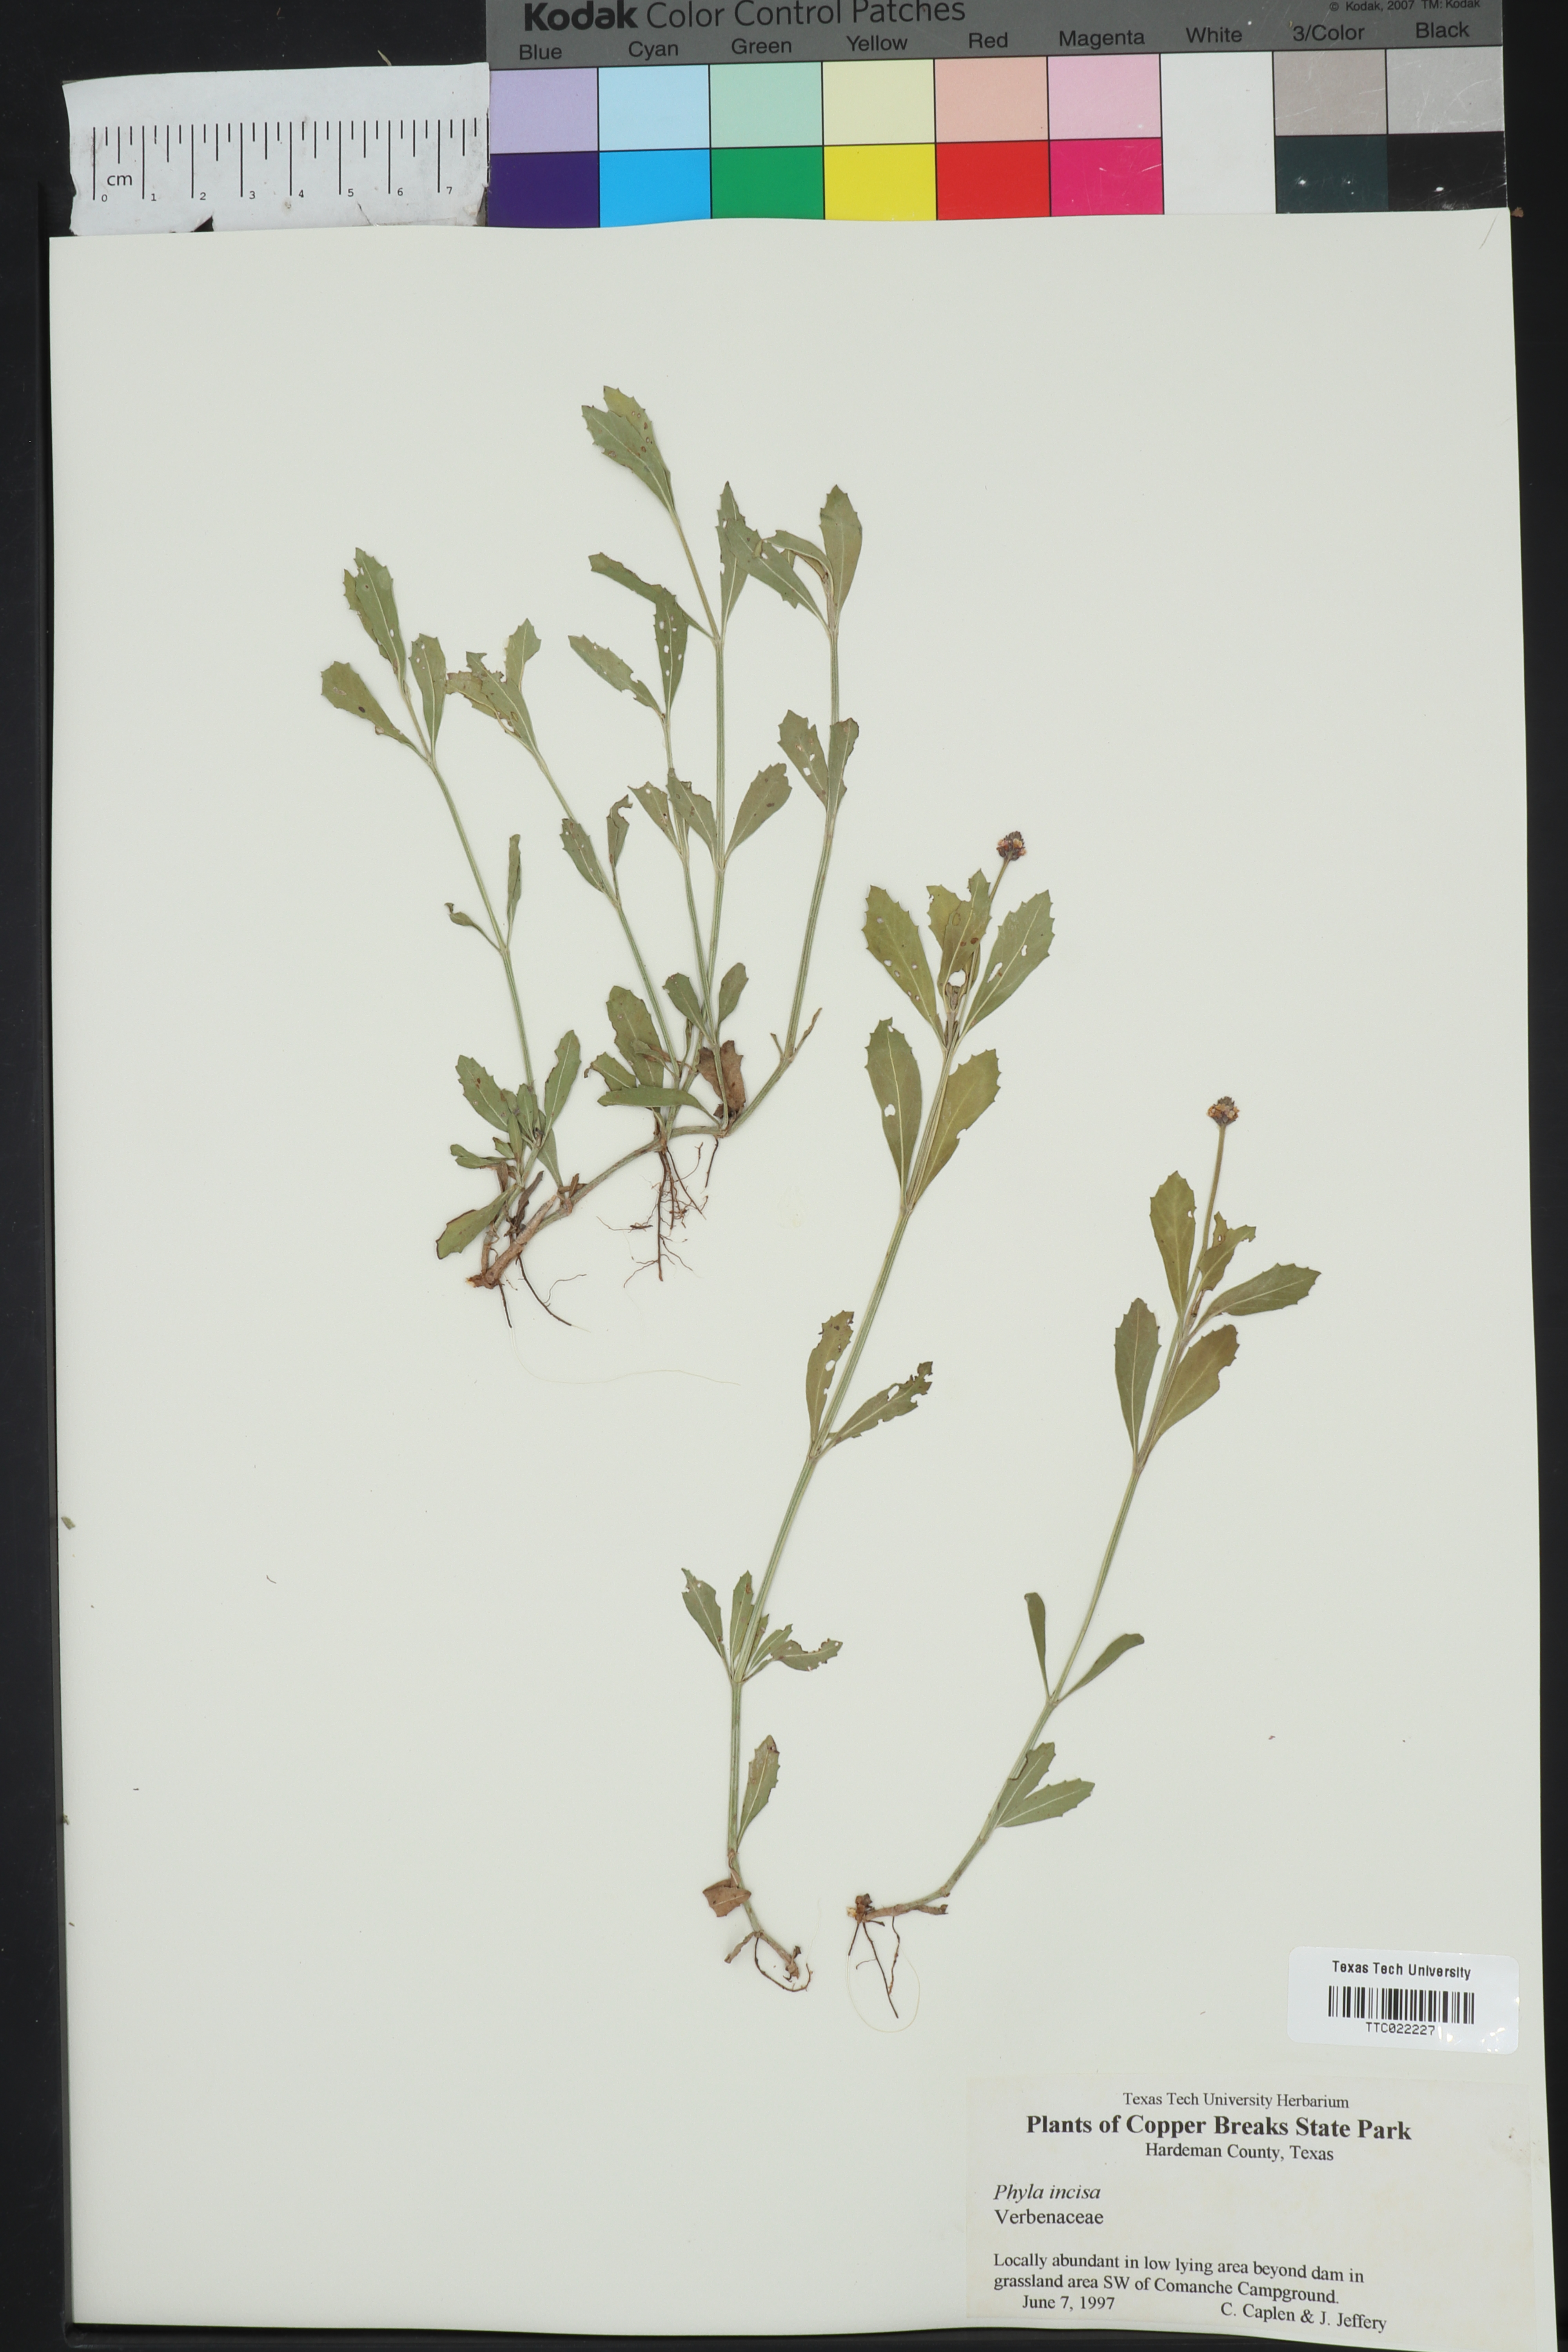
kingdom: Plantae
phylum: Tracheophyta
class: Magnoliopsida
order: Lamiales
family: Verbenaceae
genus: Phyla
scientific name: Phyla nodiflora
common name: Frogfruit
